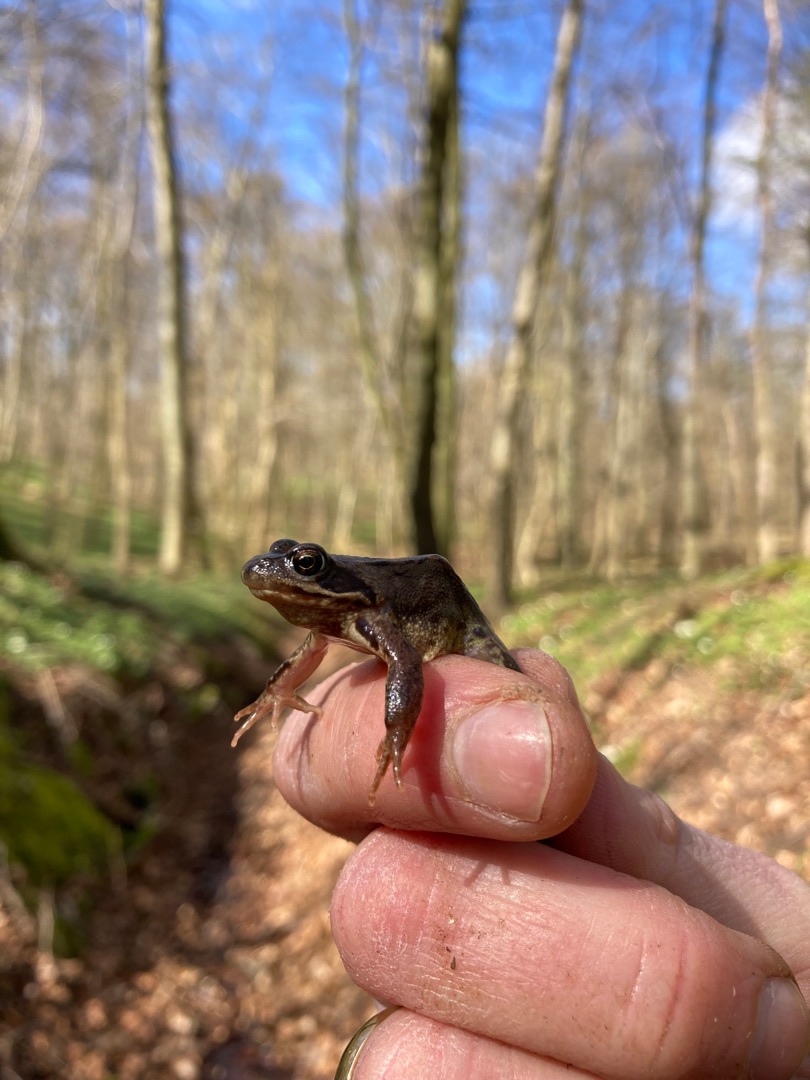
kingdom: Animalia
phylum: Chordata
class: Amphibia
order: Anura
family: Ranidae
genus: Rana
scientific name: Rana temporaria
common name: Butsnudet frø
